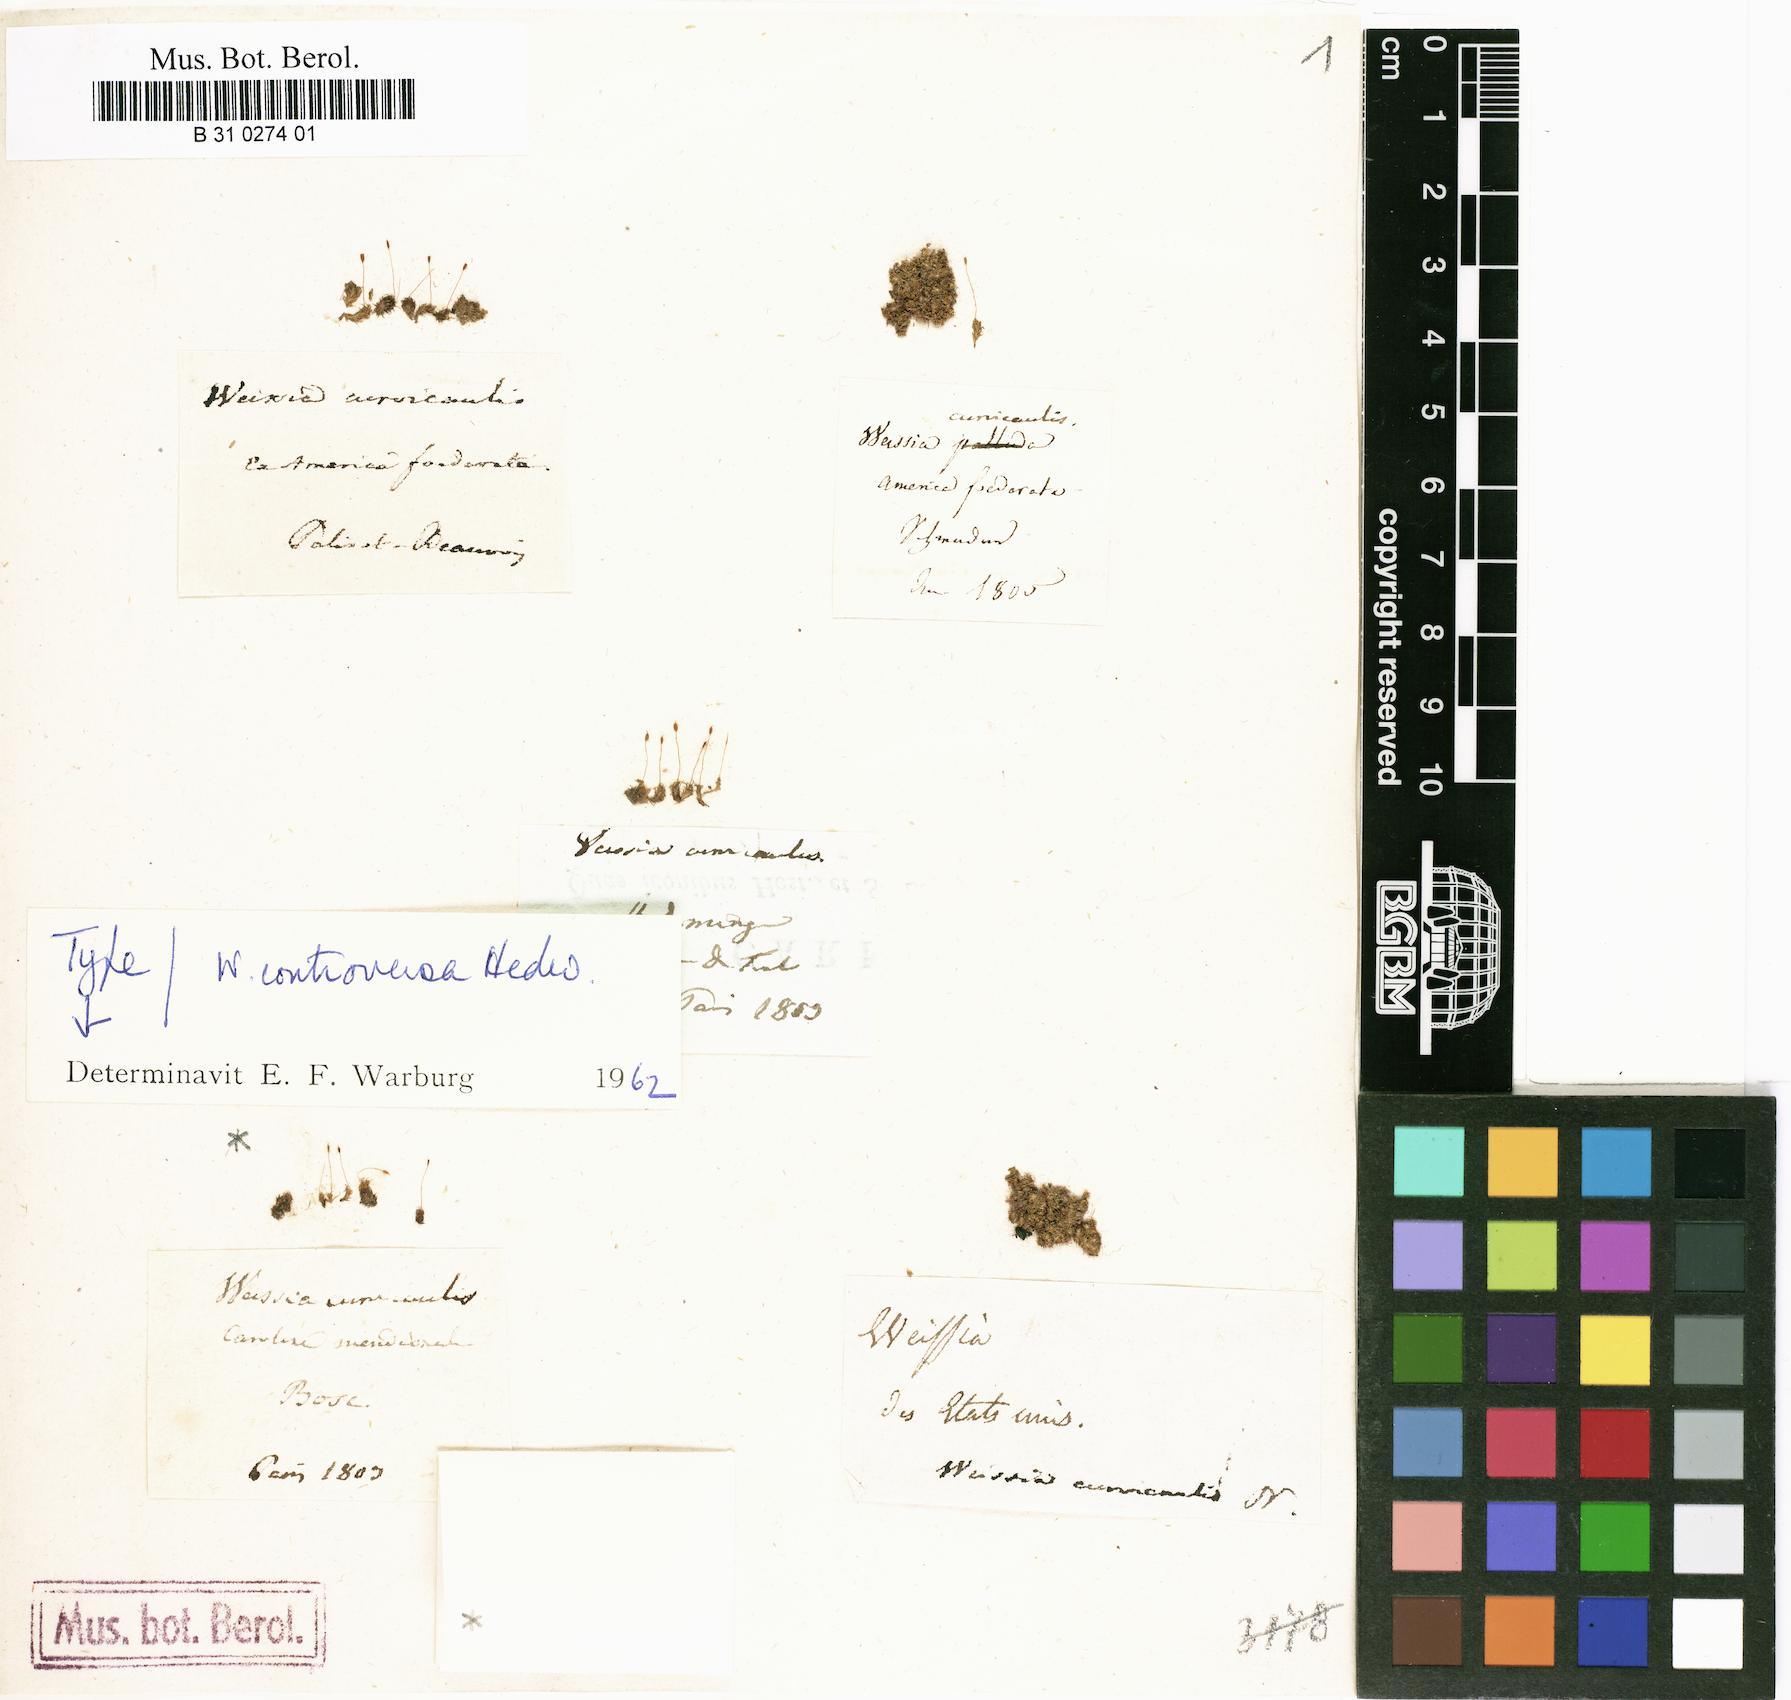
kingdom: Plantae
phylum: Bryophyta
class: Bryopsida
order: Pottiales
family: Pottiaceae
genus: Weissia
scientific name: Weissia controversa
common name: Green-tufted stubble moss
